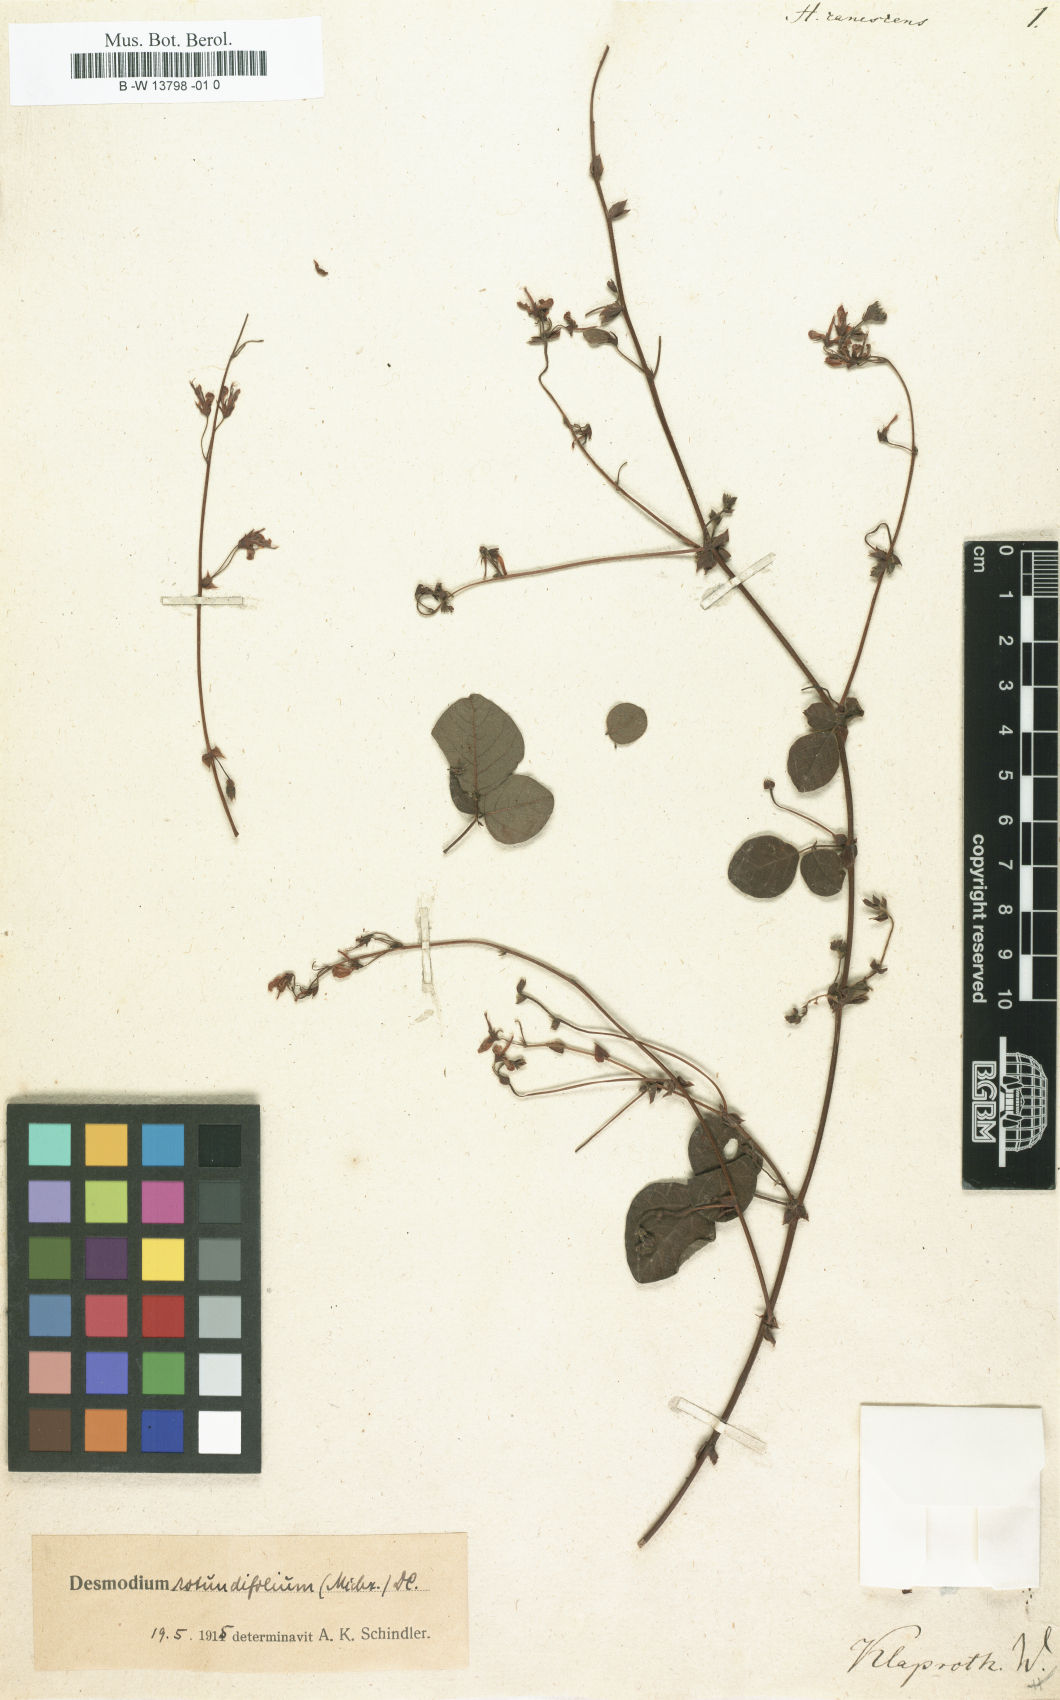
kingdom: Plantae
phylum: Tracheophyta
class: Magnoliopsida
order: Fabales
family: Fabaceae
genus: Desmodium
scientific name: Desmodium distortum
